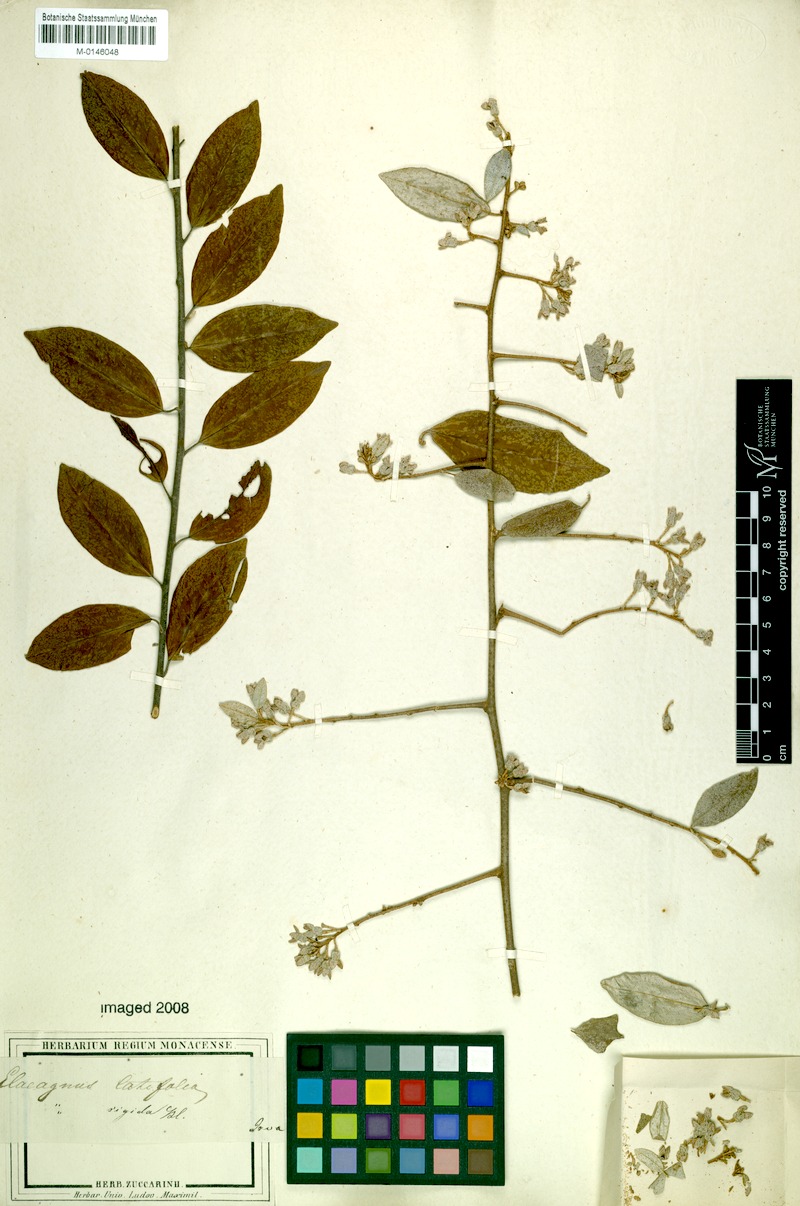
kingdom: Plantae
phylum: Tracheophyta
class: Magnoliopsida
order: Rosales
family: Elaeagnaceae
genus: Elaeagnus
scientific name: Elaeagnus latifolia
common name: Oleaster
